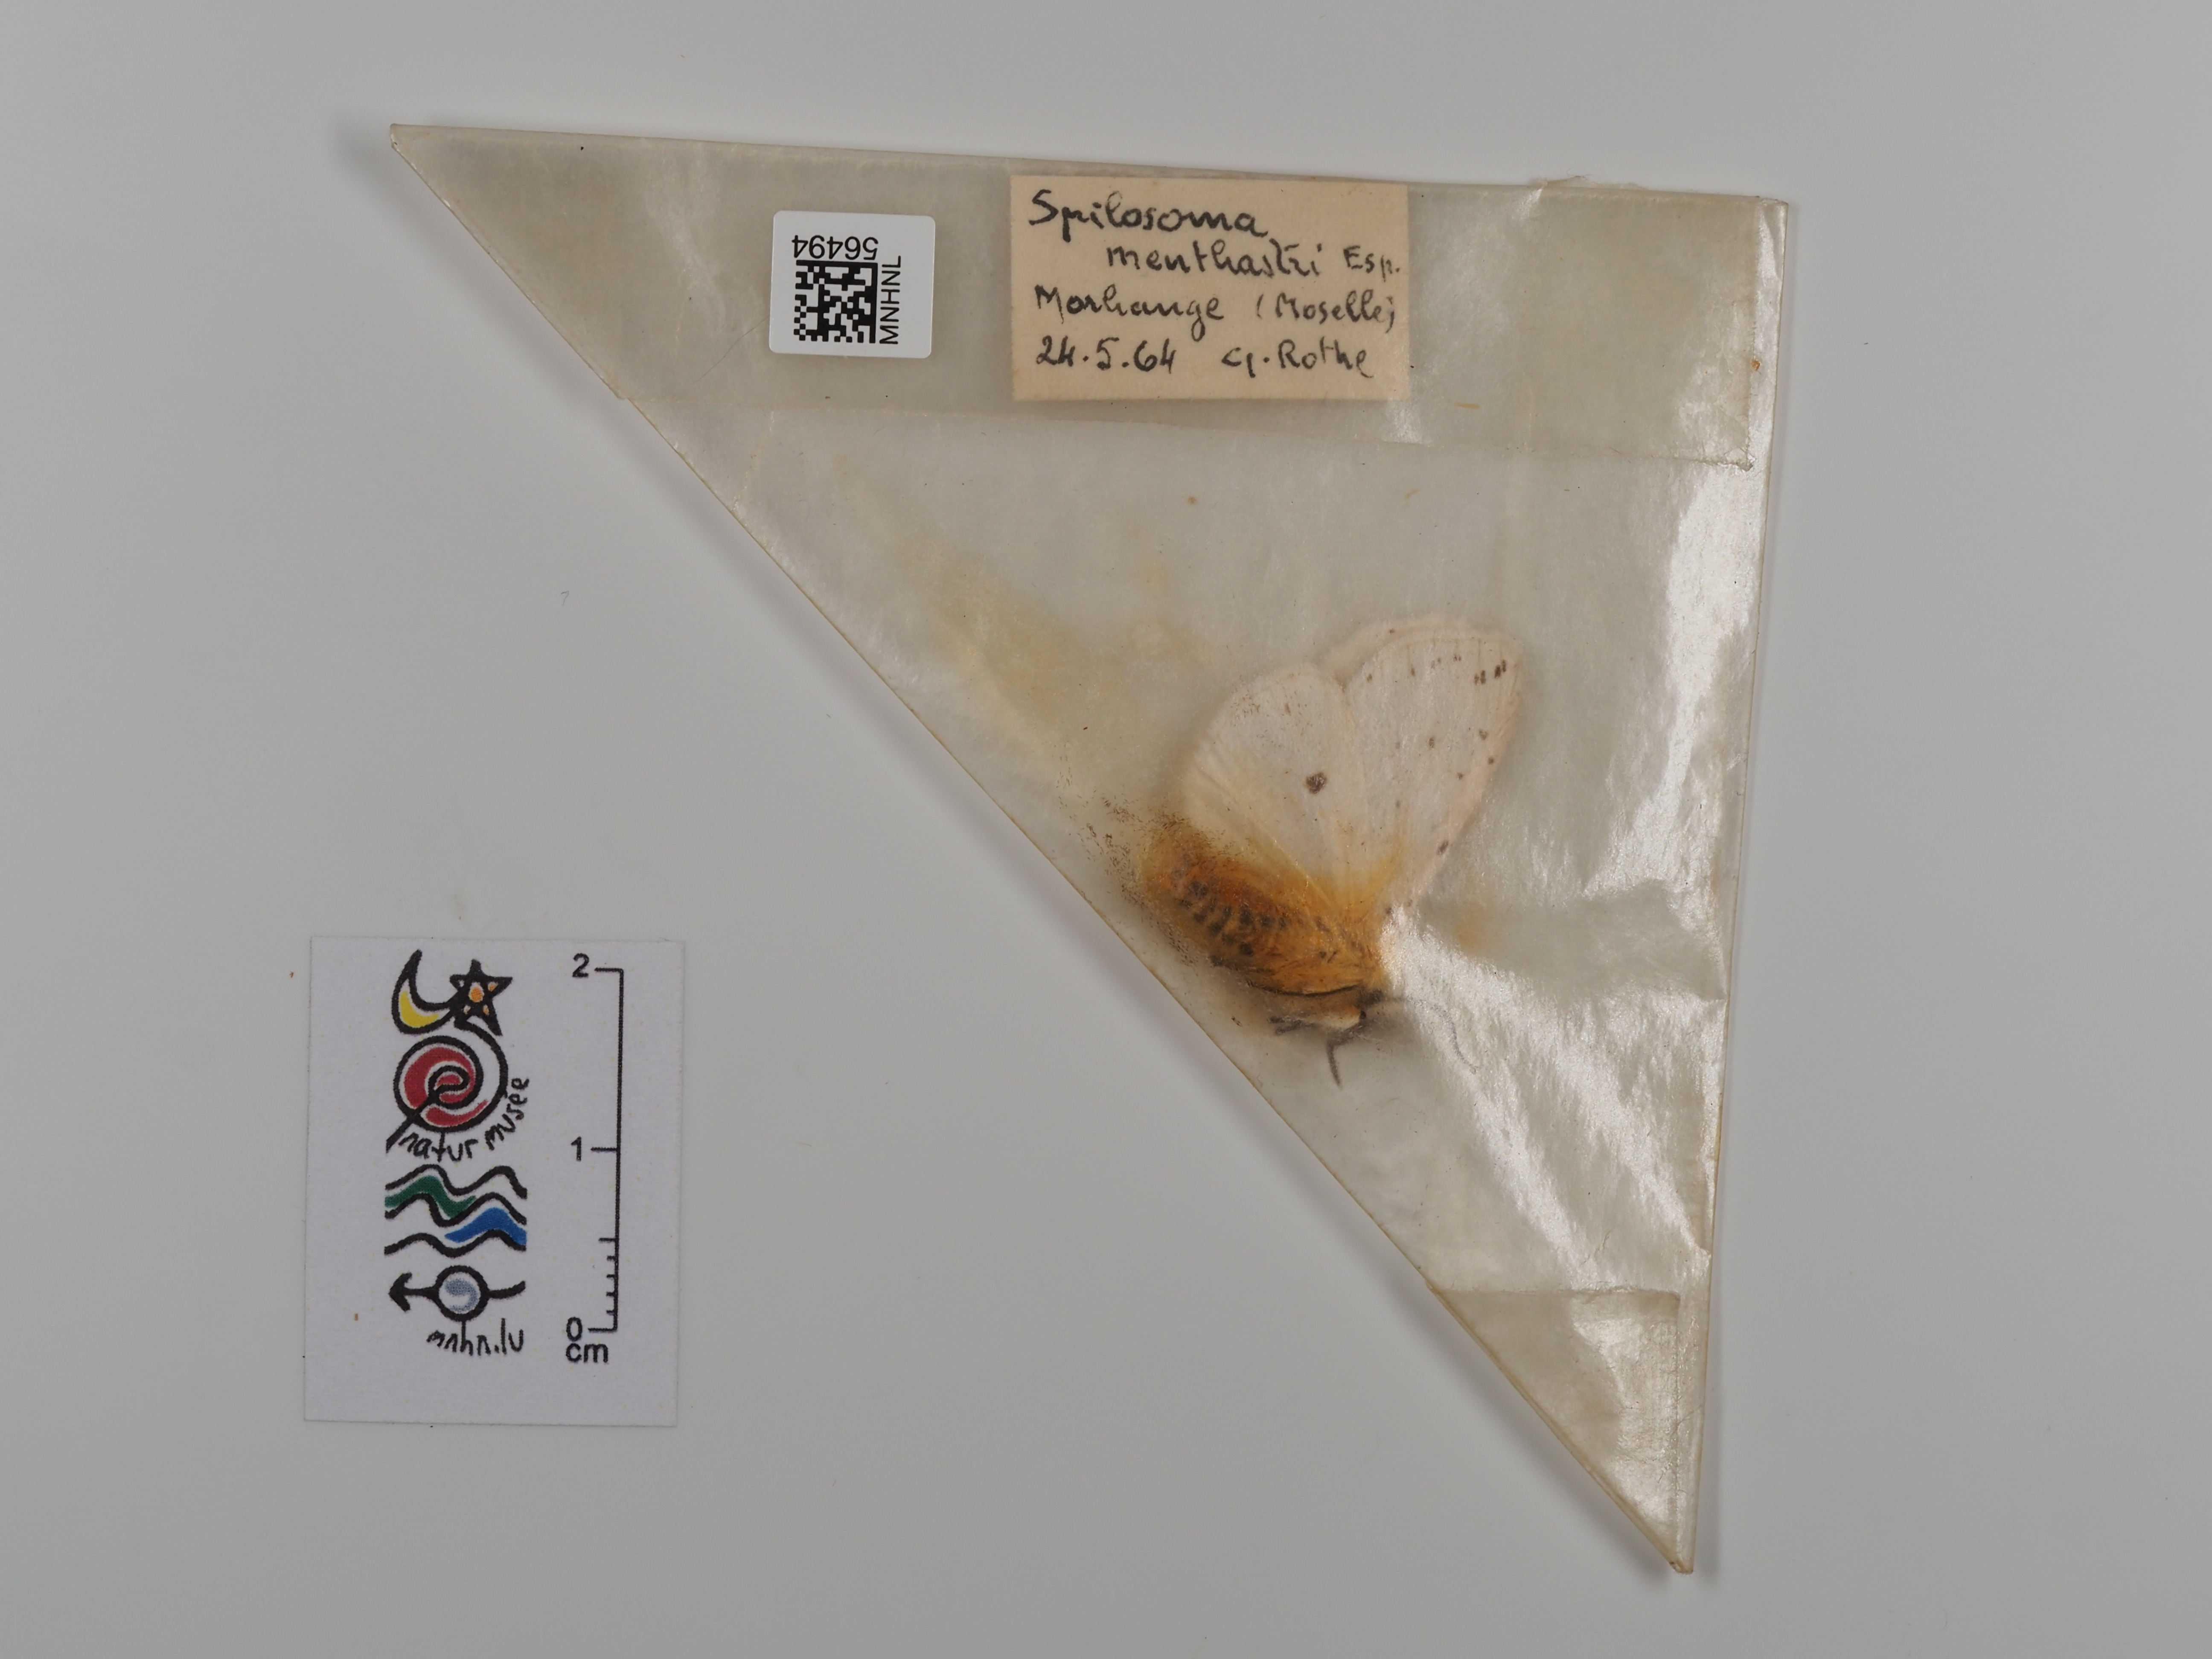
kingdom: Animalia
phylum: Arthropoda
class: Insecta
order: Lepidoptera
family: Erebidae
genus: Spilosoma
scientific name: Spilosoma lubricipeda
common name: White ermine
